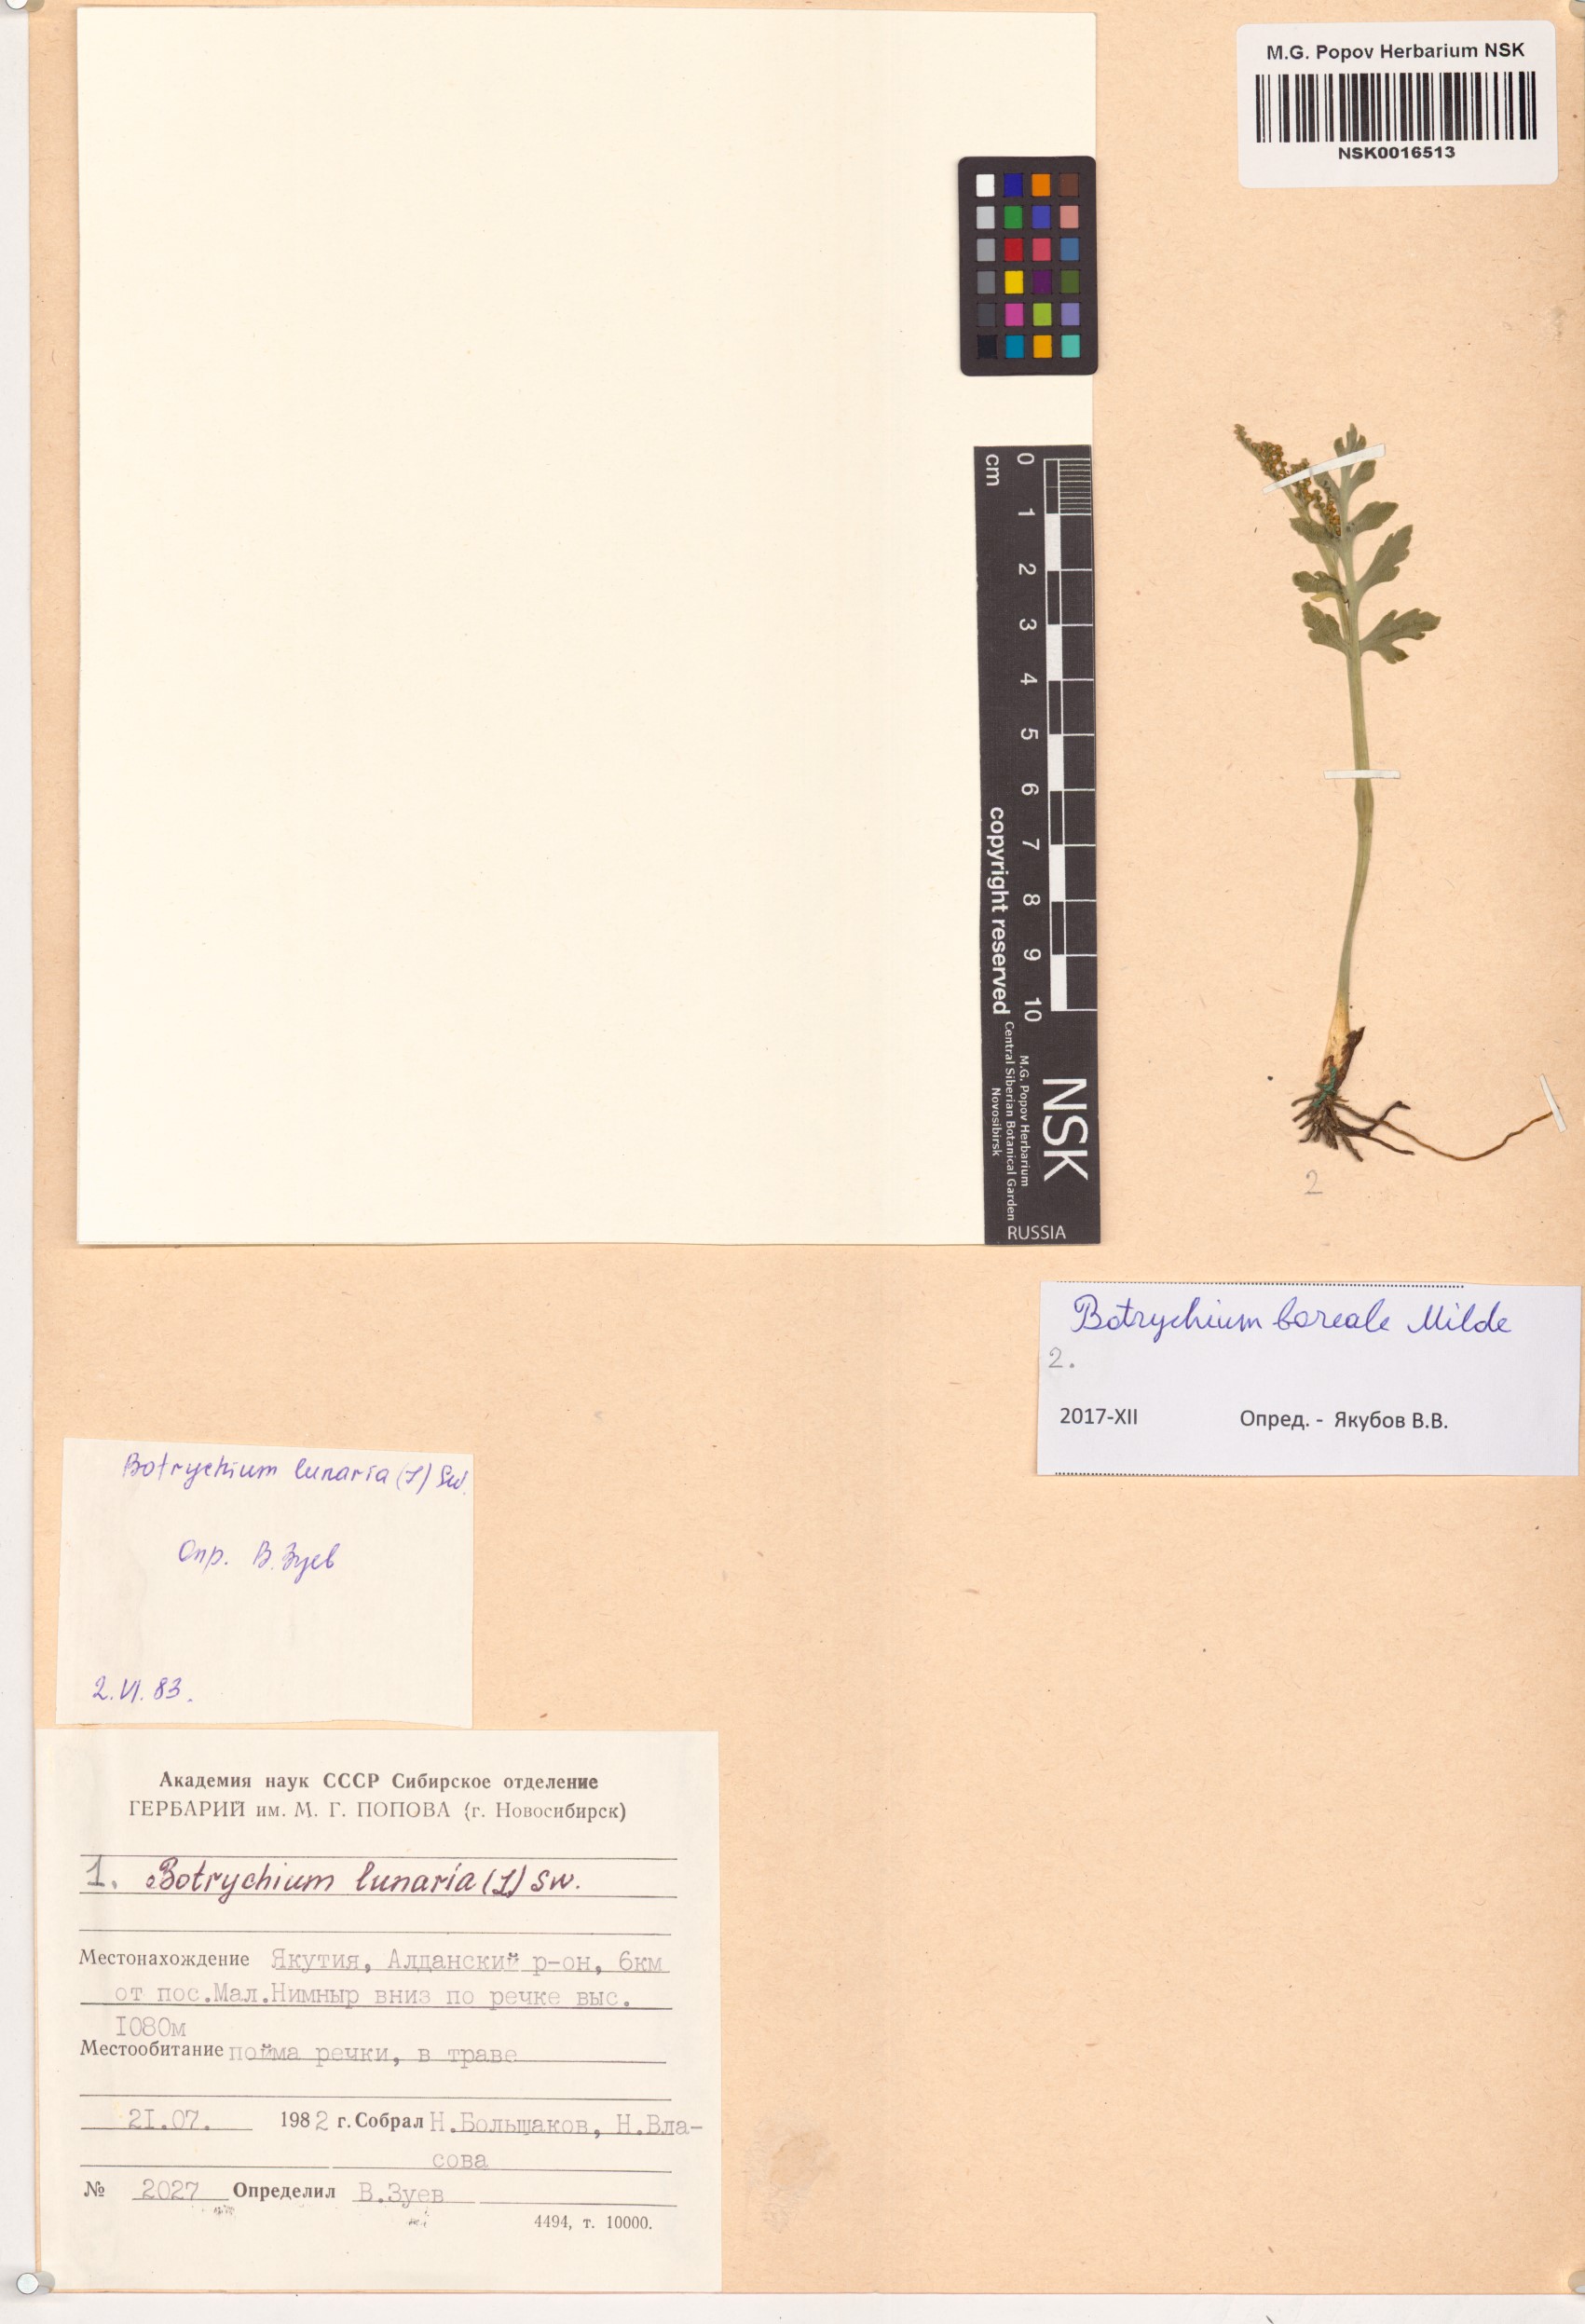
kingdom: Plantae
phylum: Tracheophyta
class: Polypodiopsida
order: Ophioglossales
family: Ophioglossaceae
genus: Botrychium
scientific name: Botrychium boreale
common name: Boreal moonwort
